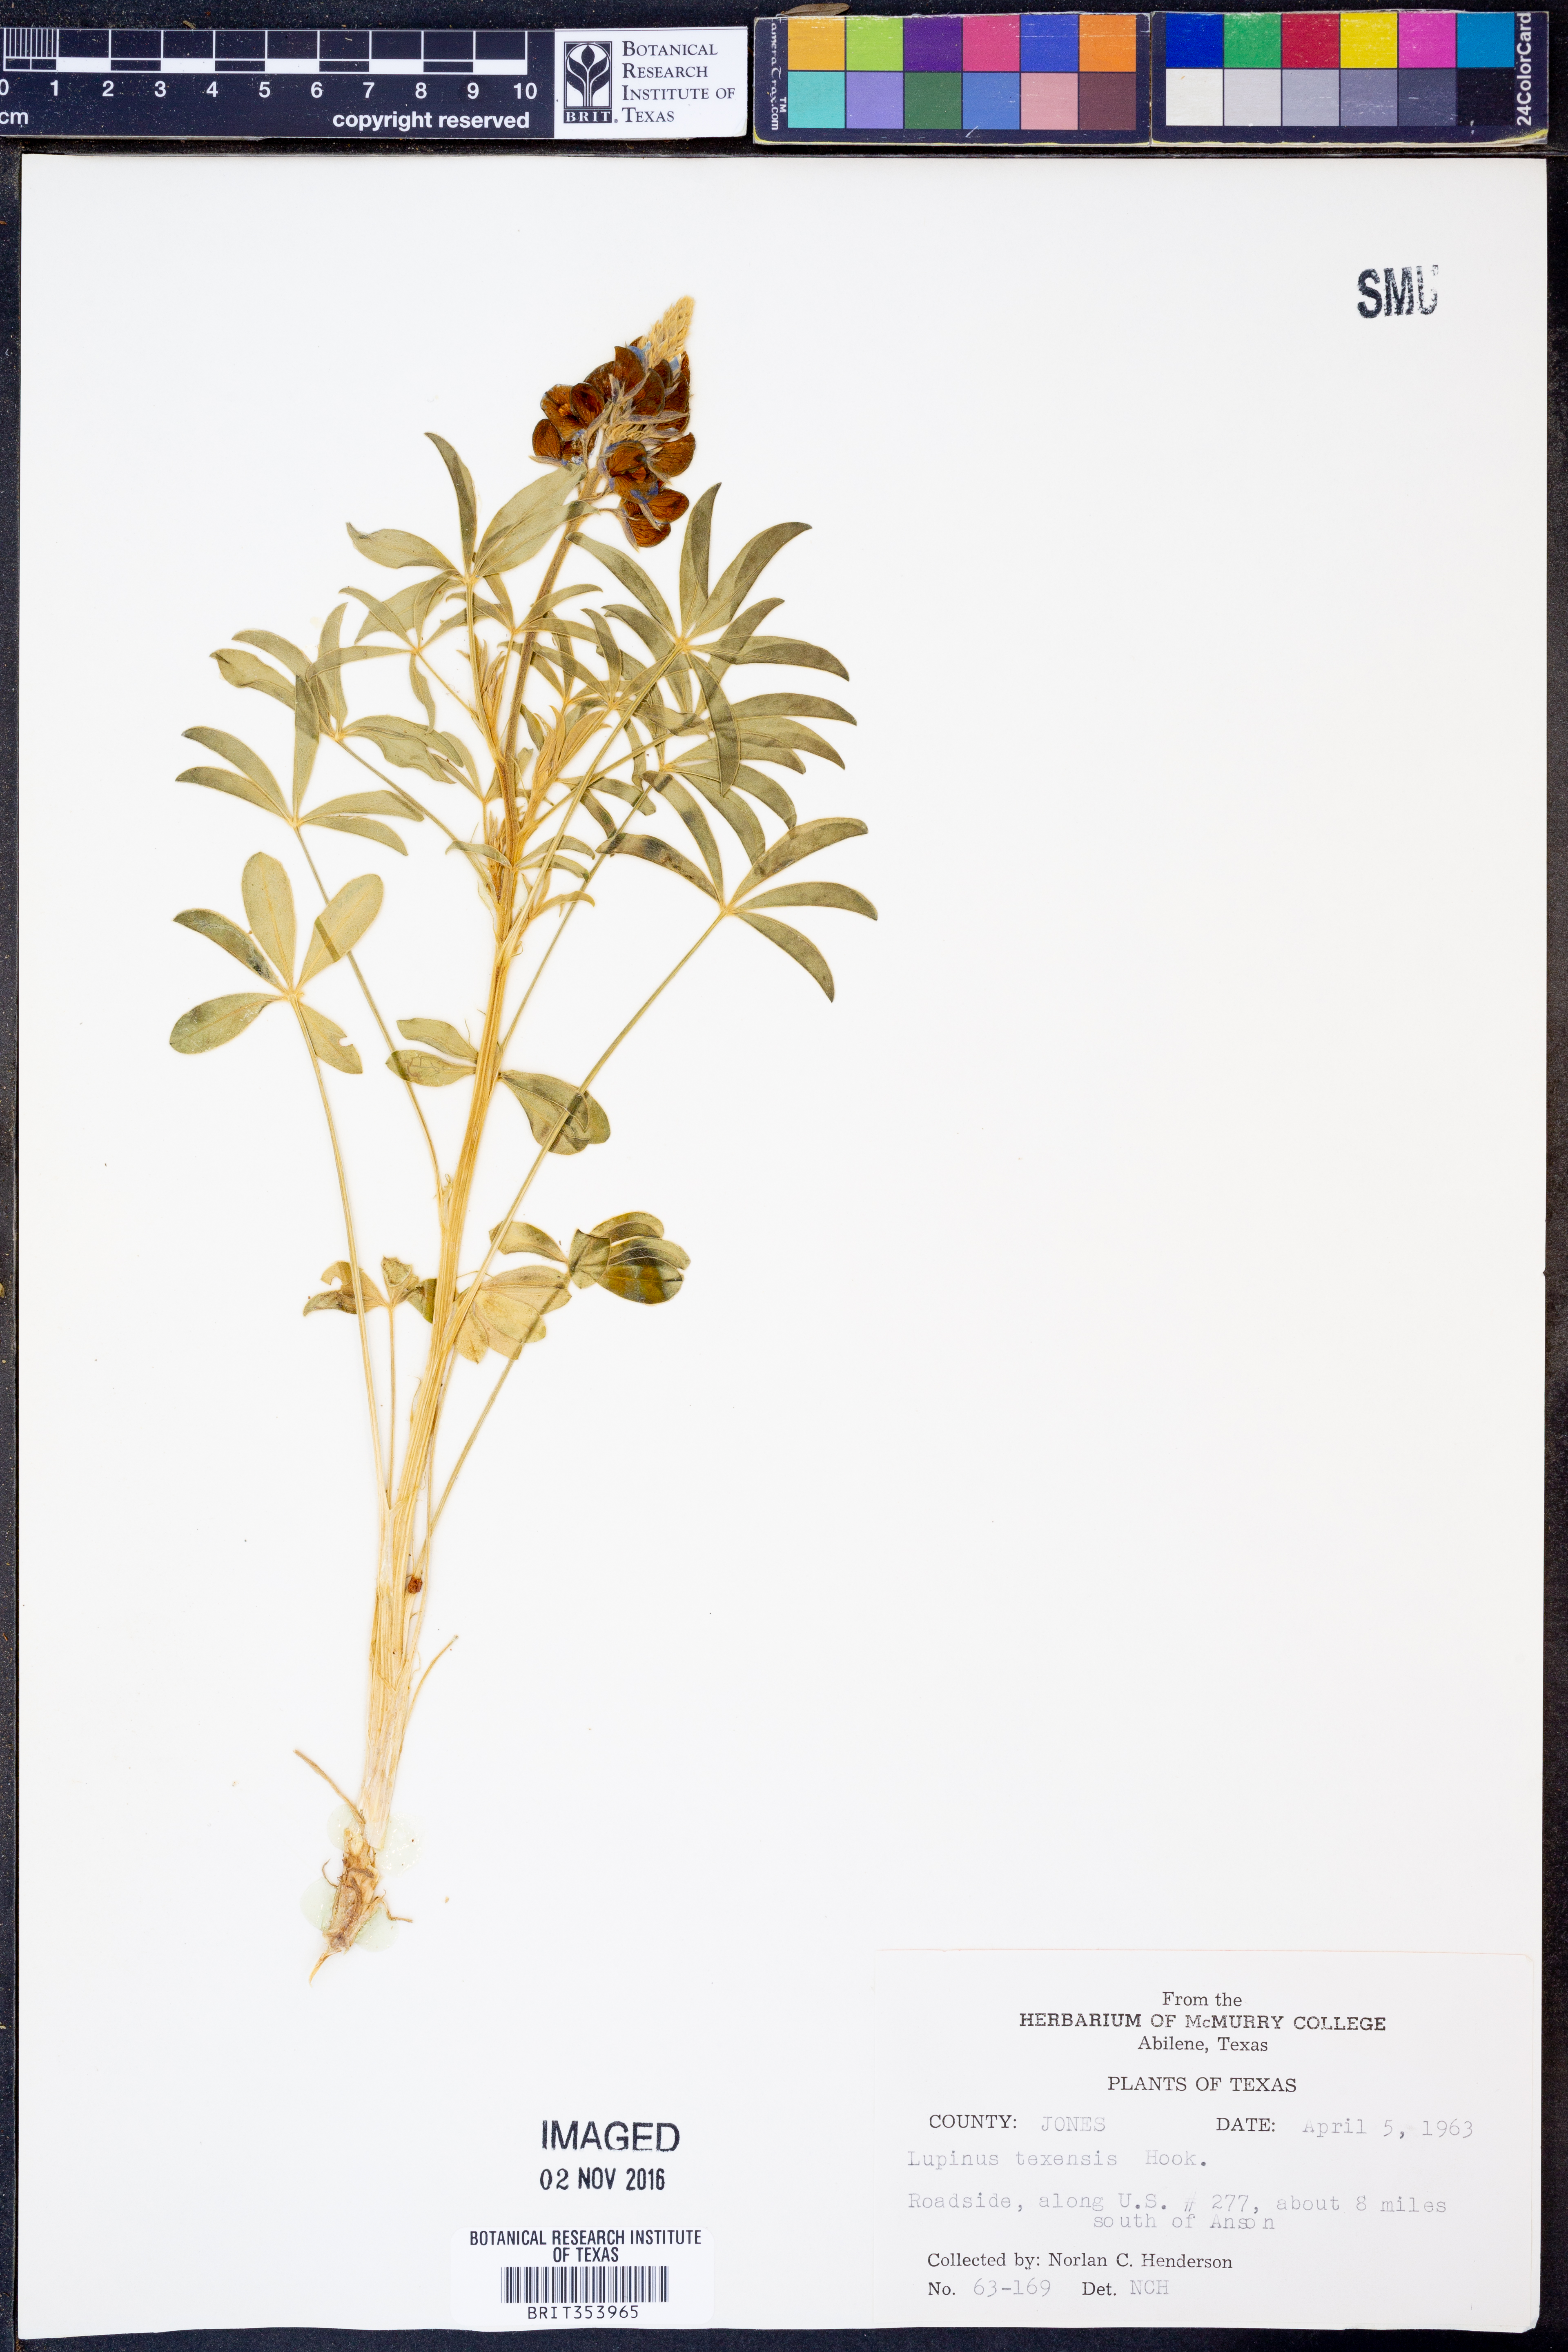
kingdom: Plantae
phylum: Tracheophyta
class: Magnoliopsida
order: Fabales
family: Fabaceae
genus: Lupinus
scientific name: Lupinus texensis
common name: Texas bluebonnet
